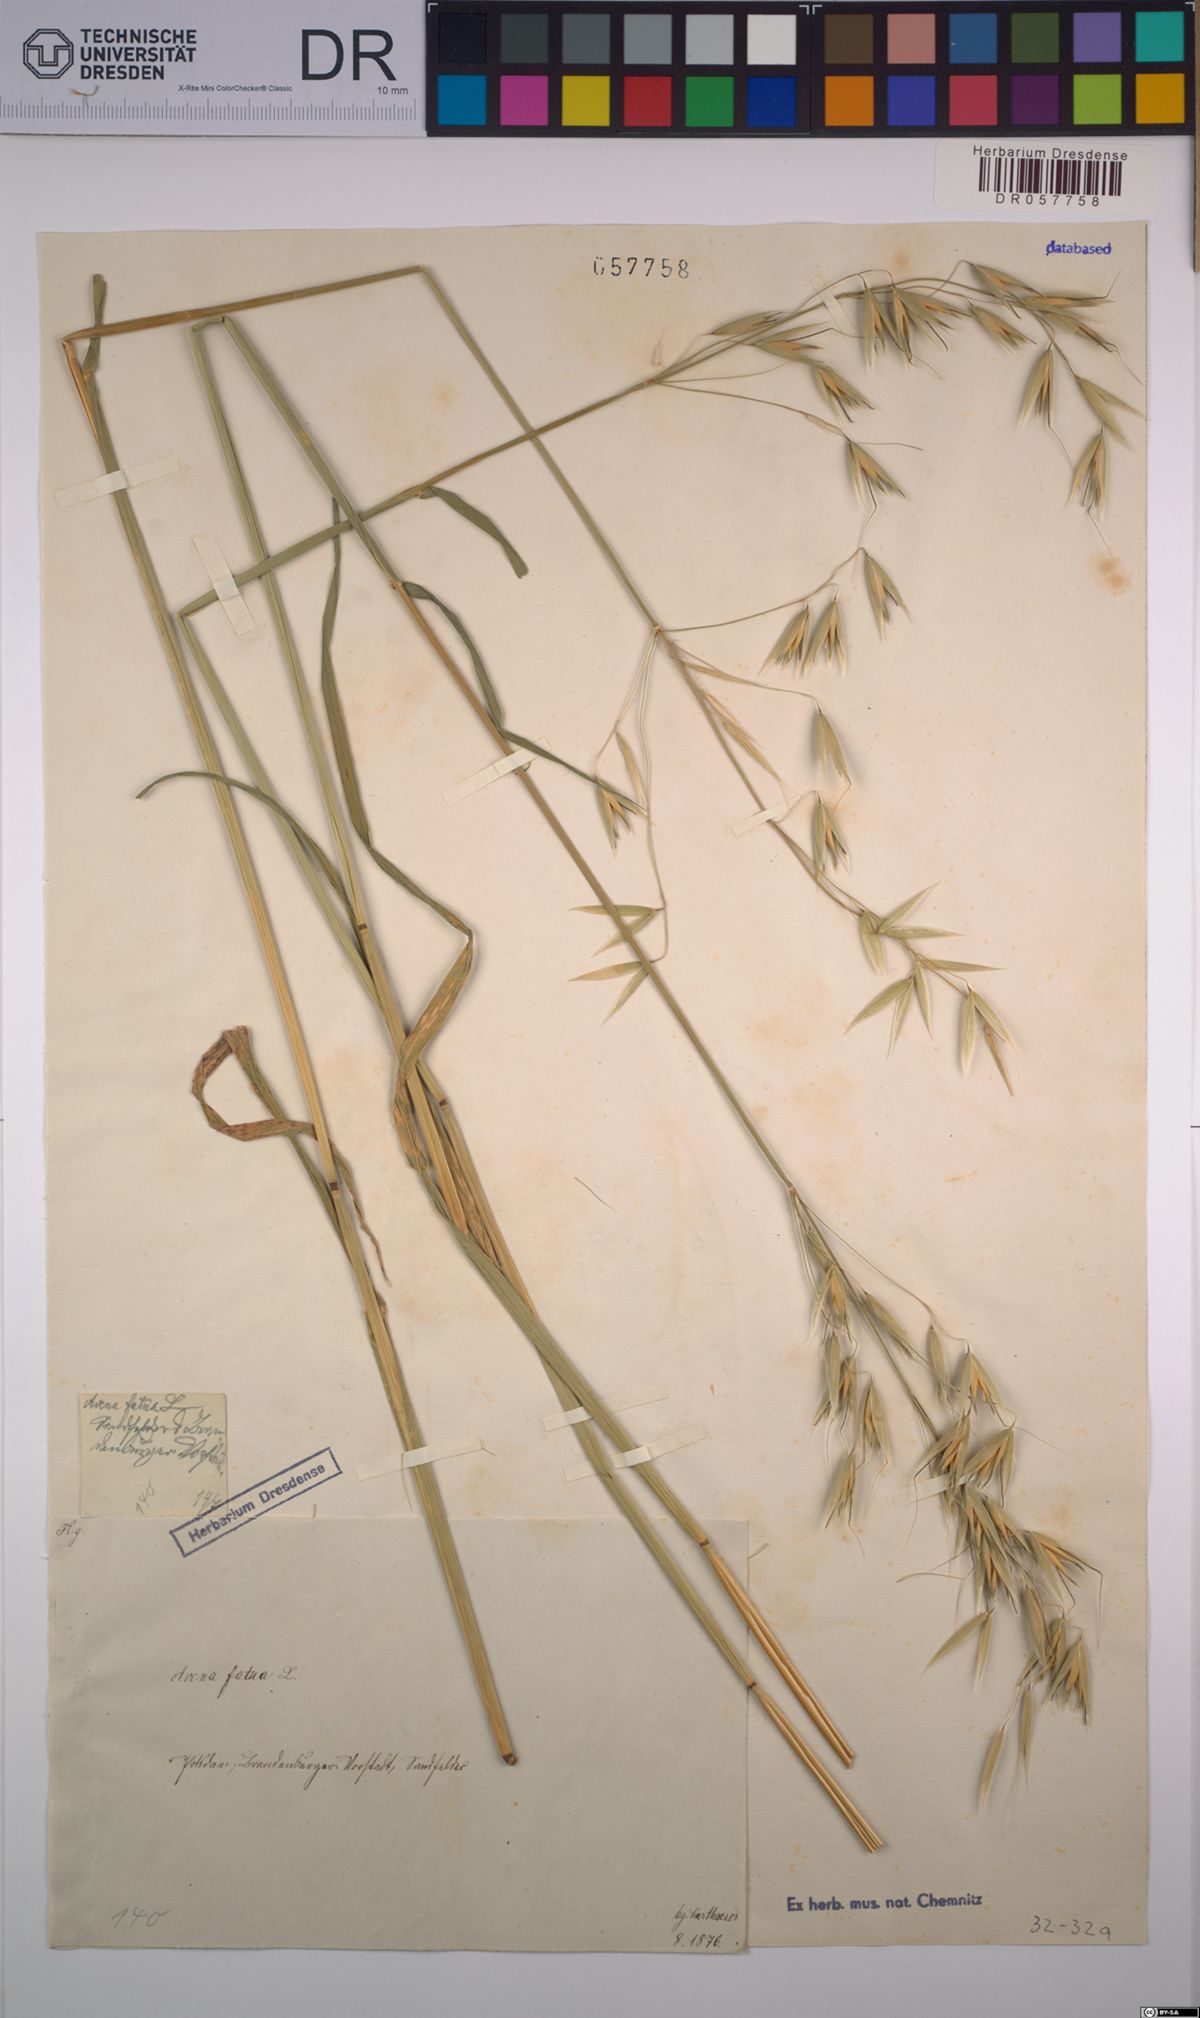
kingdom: Plantae
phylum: Tracheophyta
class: Liliopsida
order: Poales
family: Poaceae
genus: Avena
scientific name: Avena fatua
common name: Wild oat
